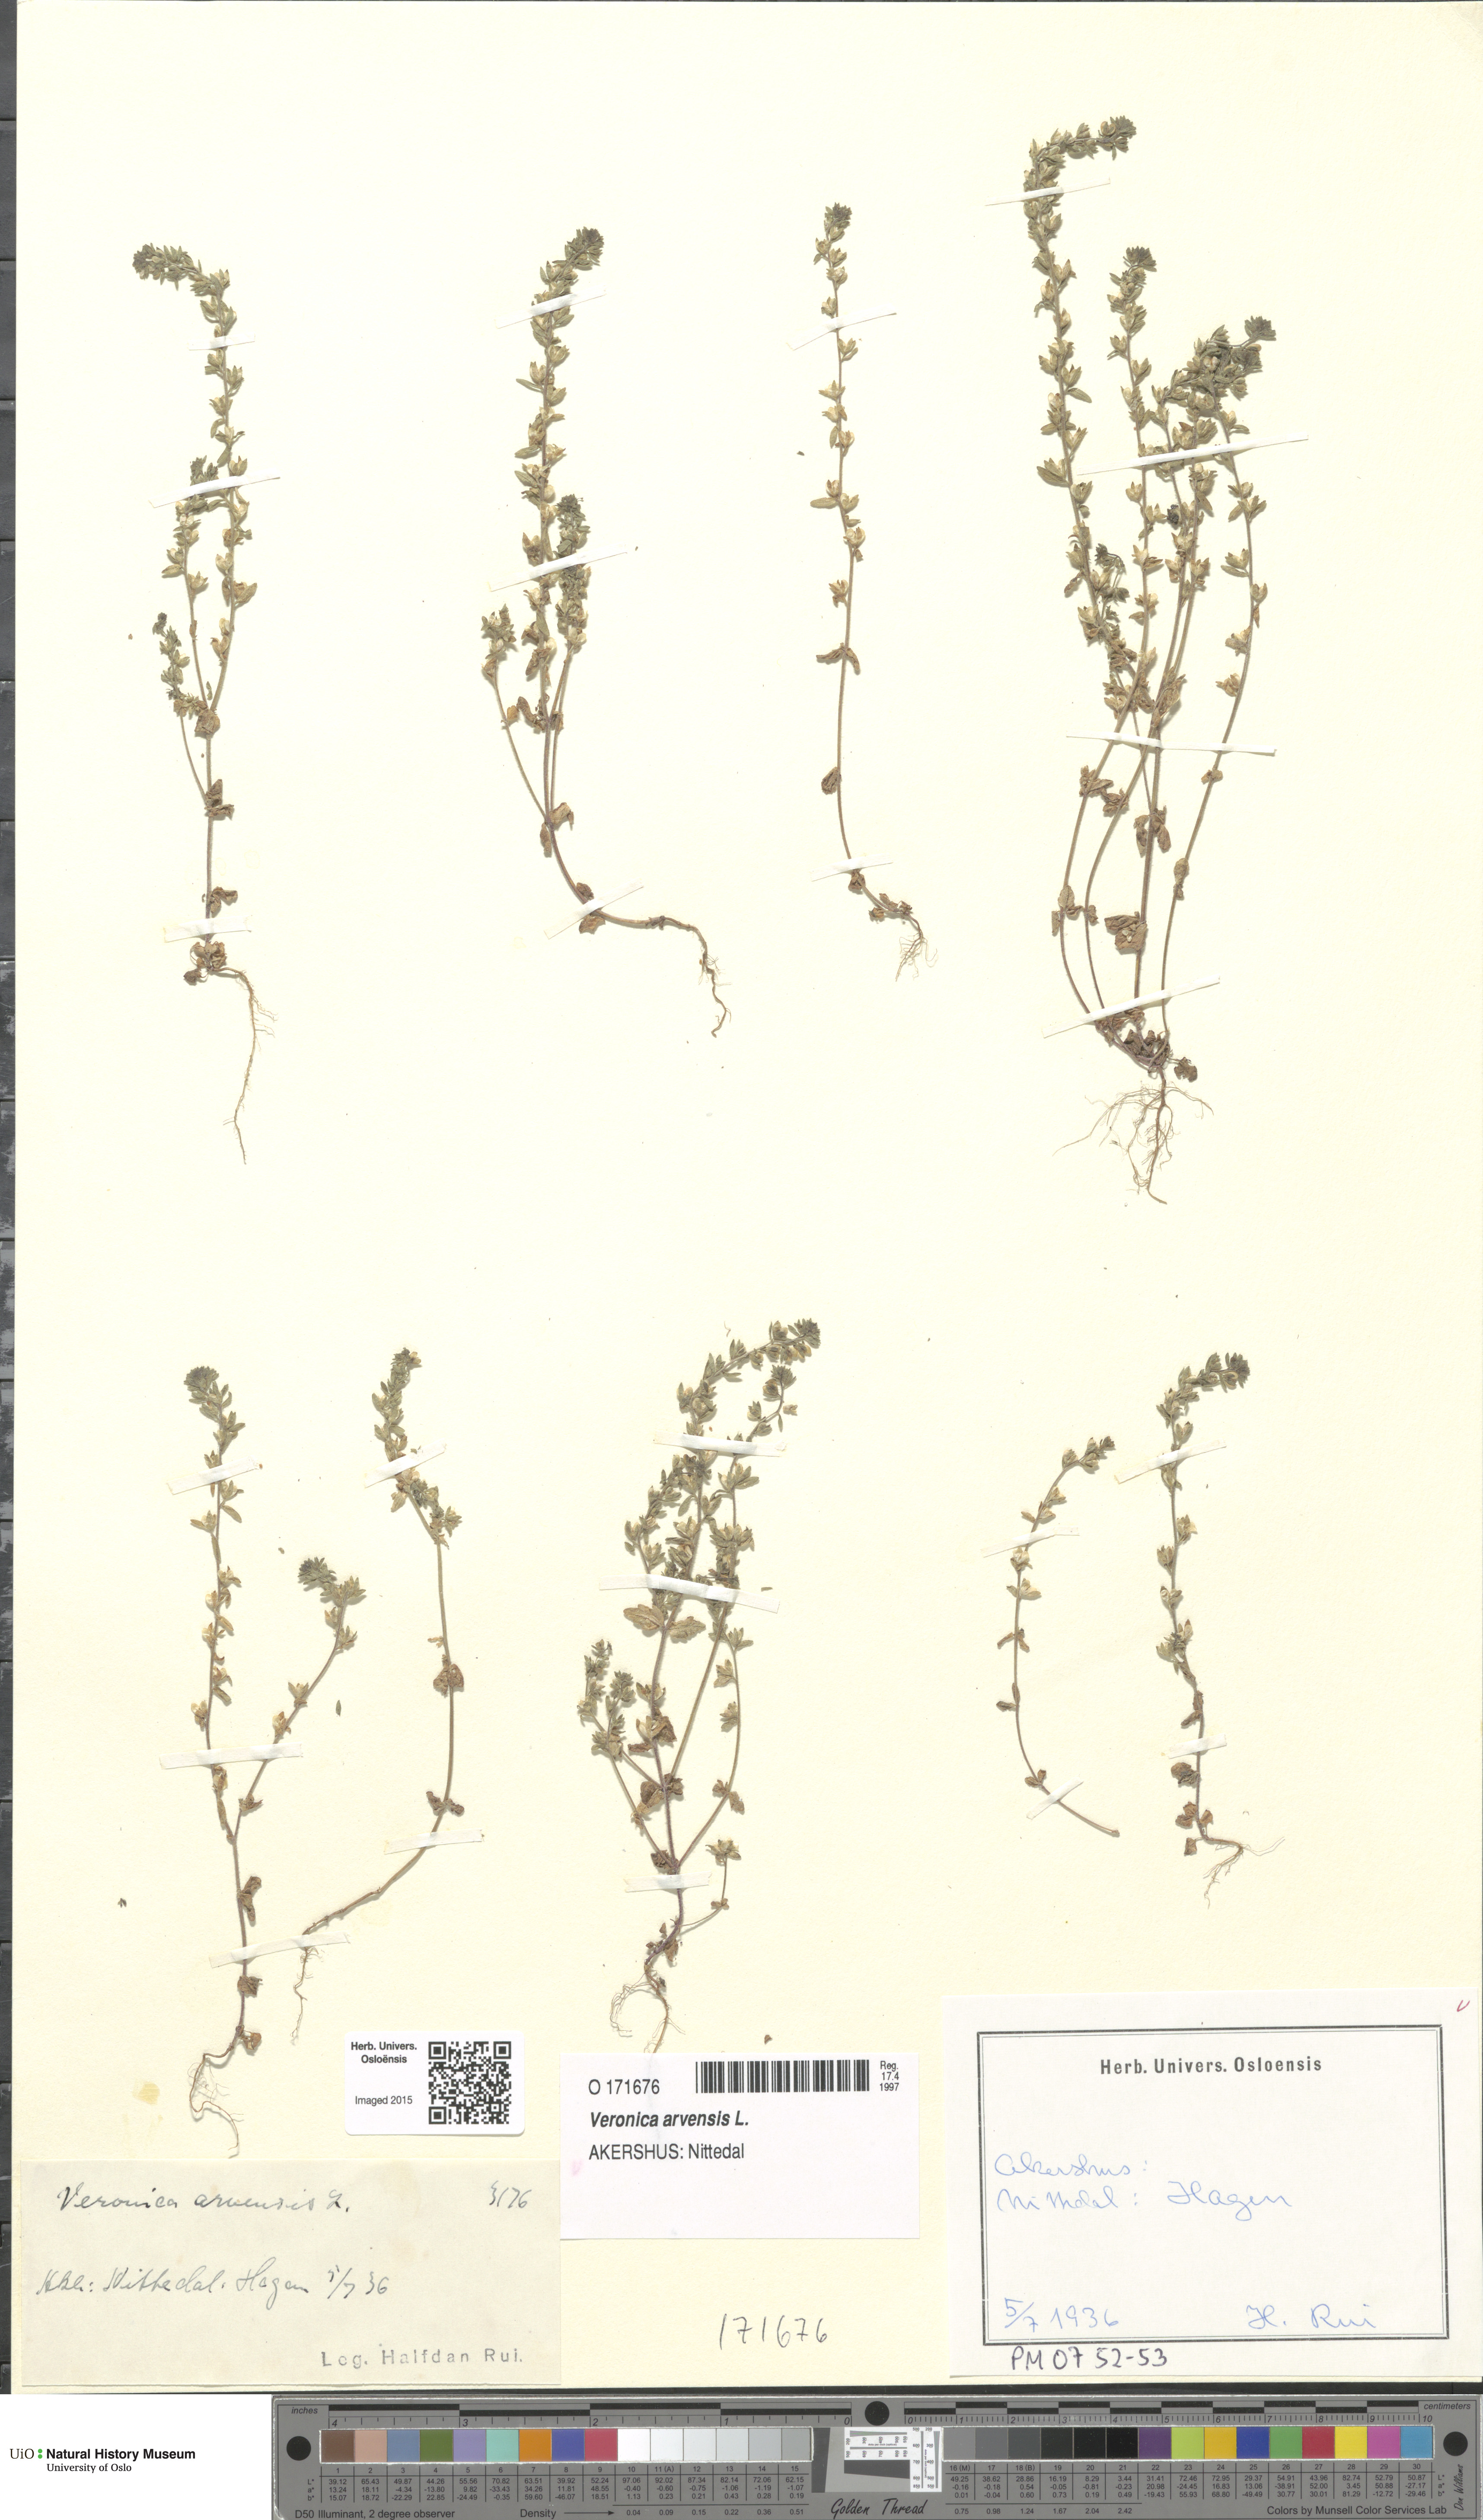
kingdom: Plantae
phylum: Tracheophyta
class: Magnoliopsida
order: Lamiales
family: Plantaginaceae
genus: Veronica
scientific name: Veronica arvensis
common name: Corn speedwell
